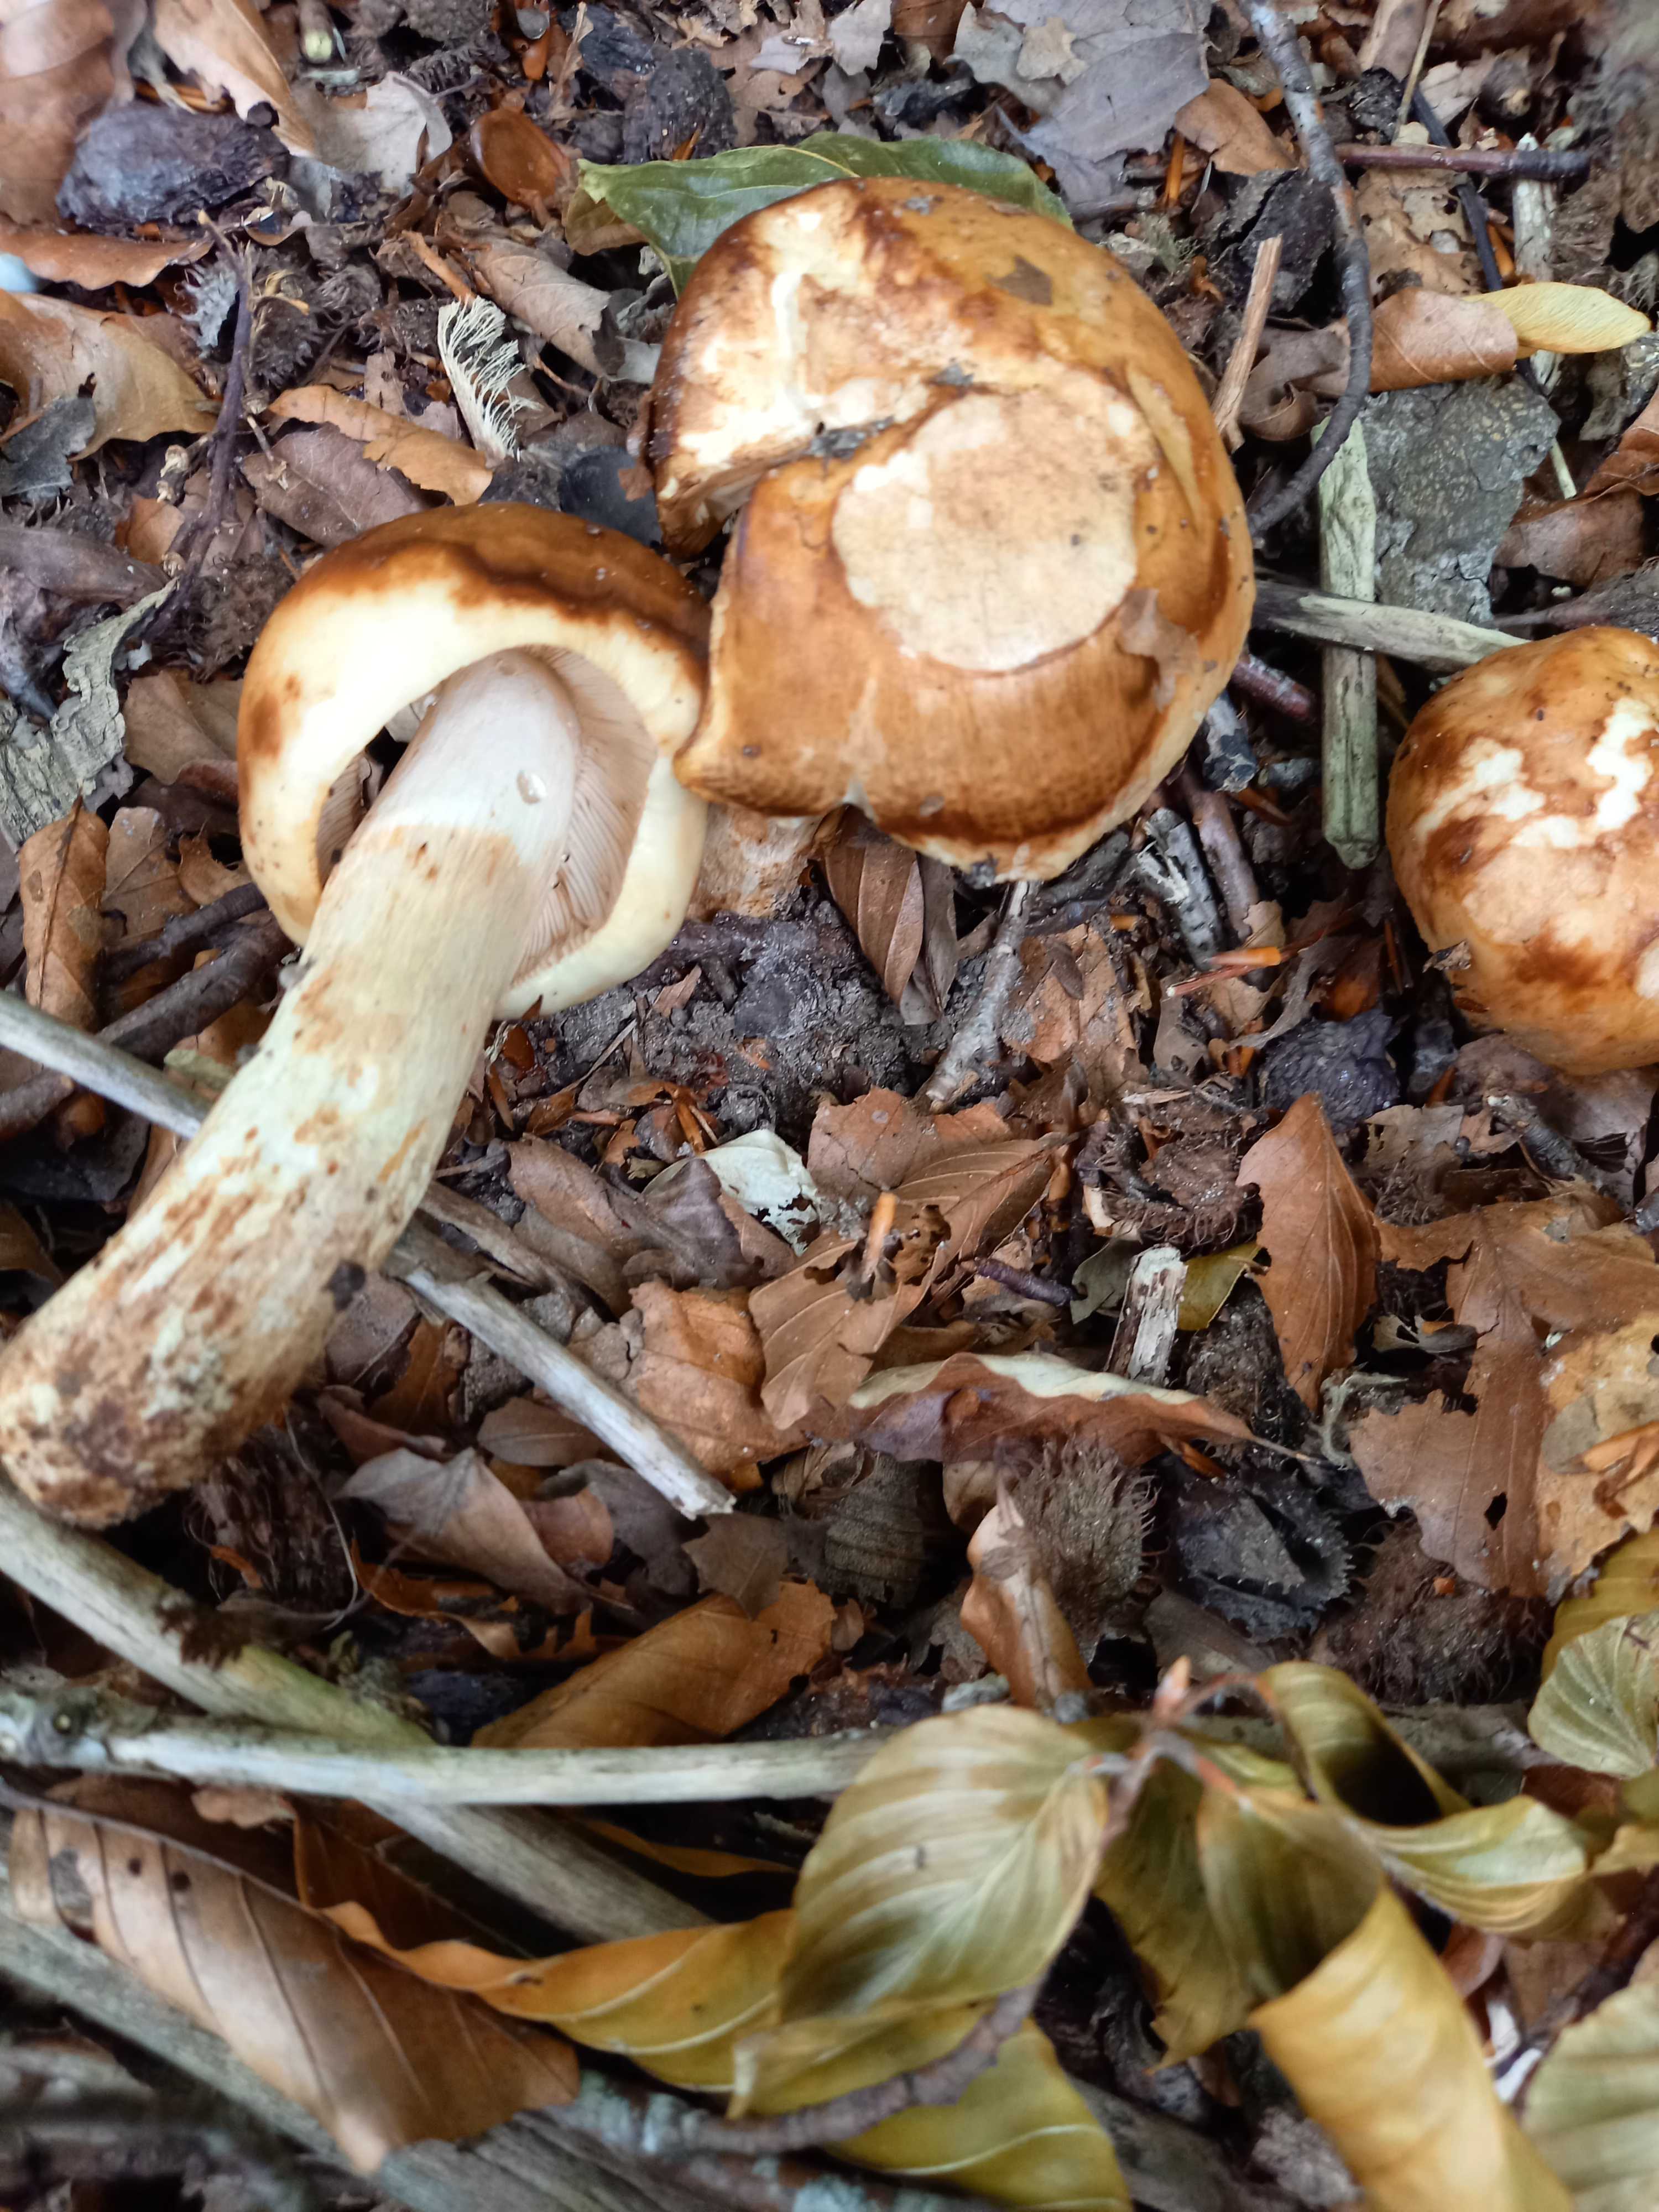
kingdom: Fungi
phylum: Basidiomycota
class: Agaricomycetes
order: Russulales
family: Russulaceae
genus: Russula
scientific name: Russula foetens
